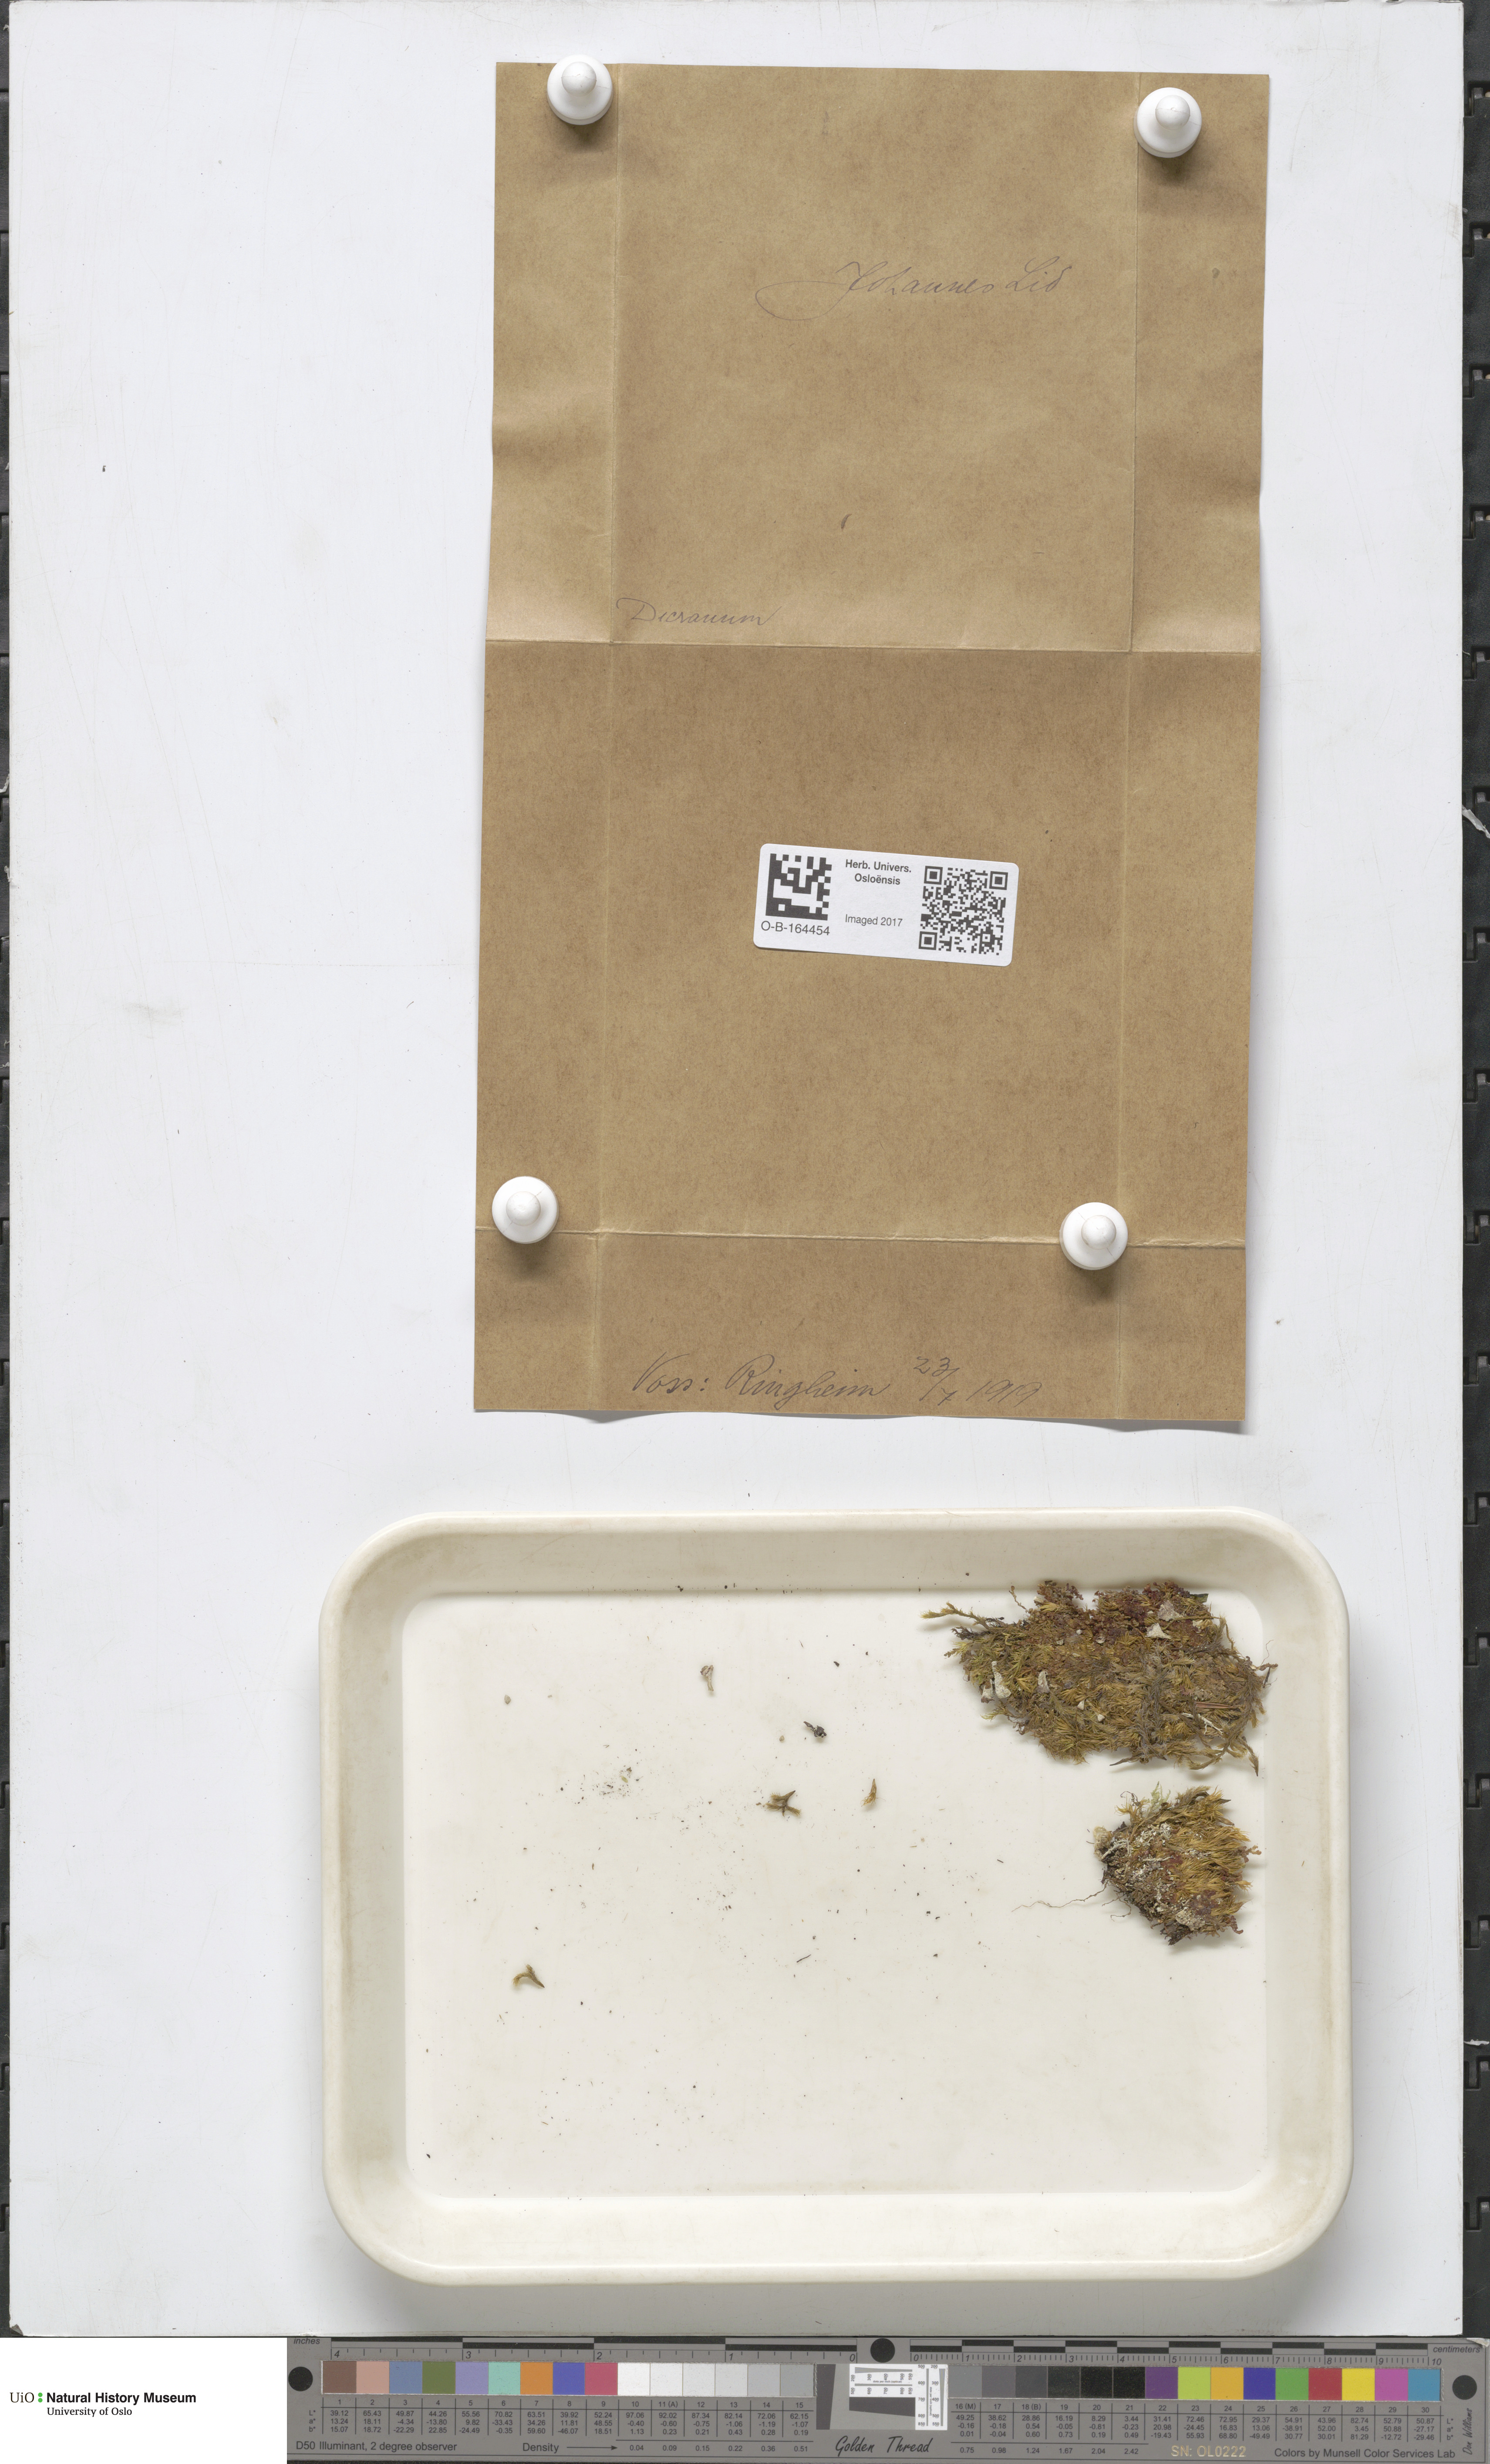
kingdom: Plantae
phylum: Bryophyta
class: Bryopsida
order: Dicranales
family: Dicranaceae
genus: Dicranum
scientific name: Dicranum
